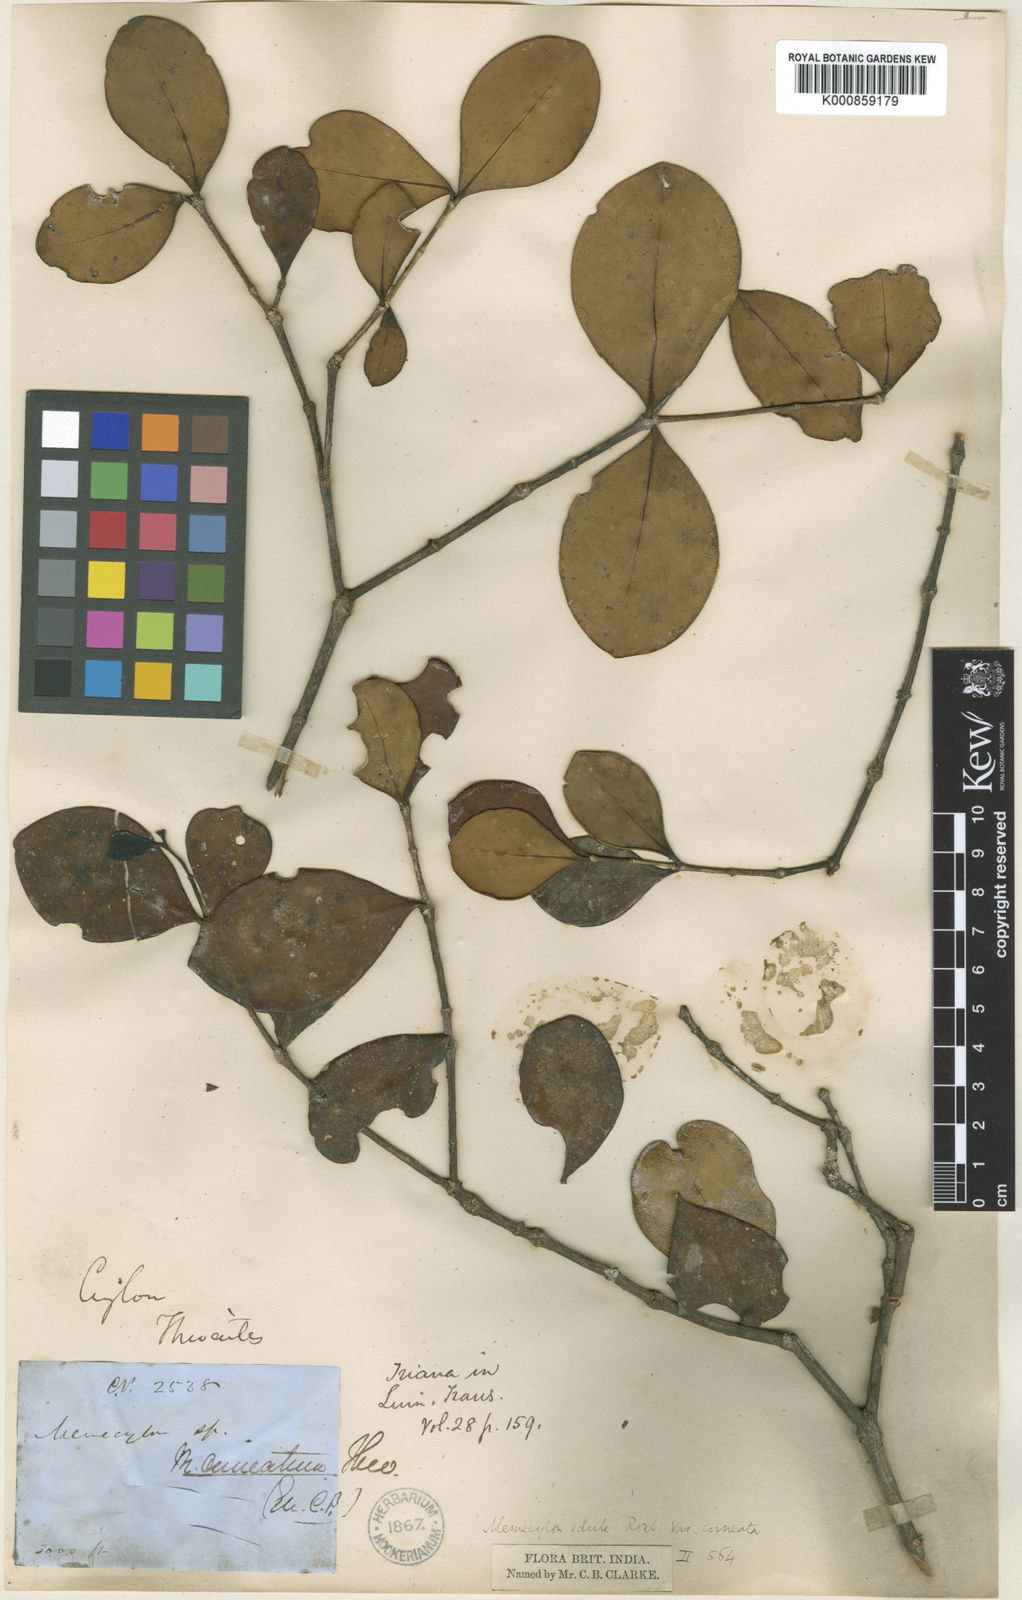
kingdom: Plantae
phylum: Tracheophyta
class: Magnoliopsida
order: Myrtales
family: Melastomataceae
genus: Memecylon
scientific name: Memecylon cuneatum
